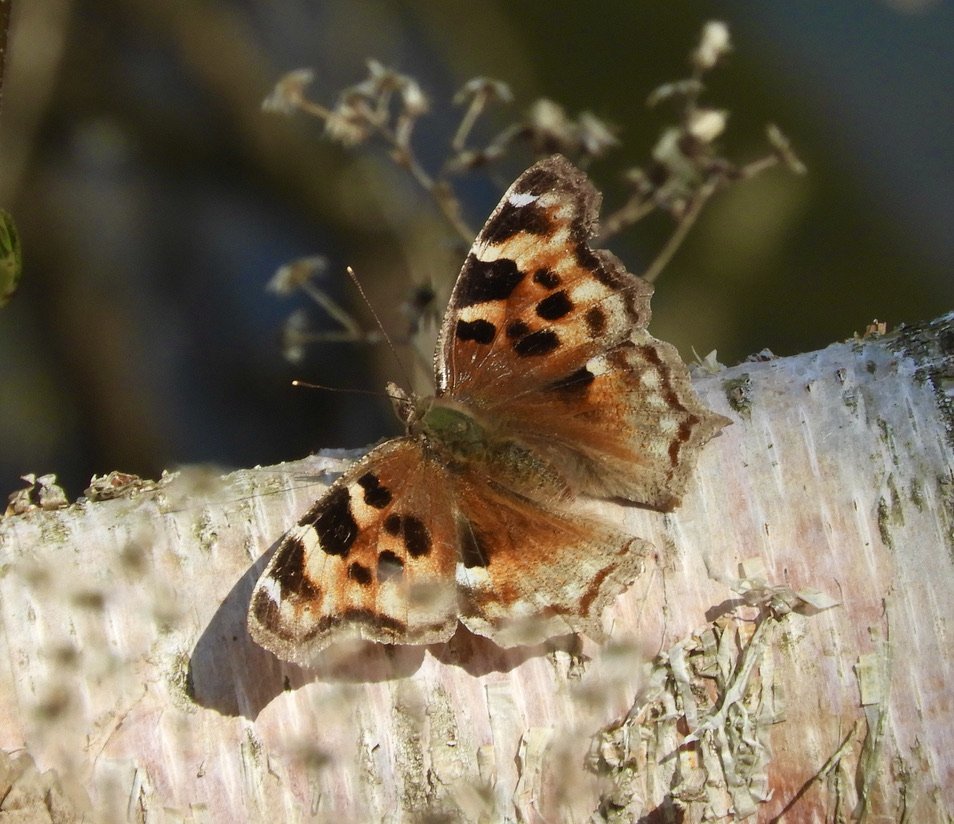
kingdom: Animalia
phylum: Arthropoda
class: Insecta
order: Lepidoptera
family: Nymphalidae
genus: Polygonia
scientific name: Polygonia vaualbum
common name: Compton Tortoiseshell
